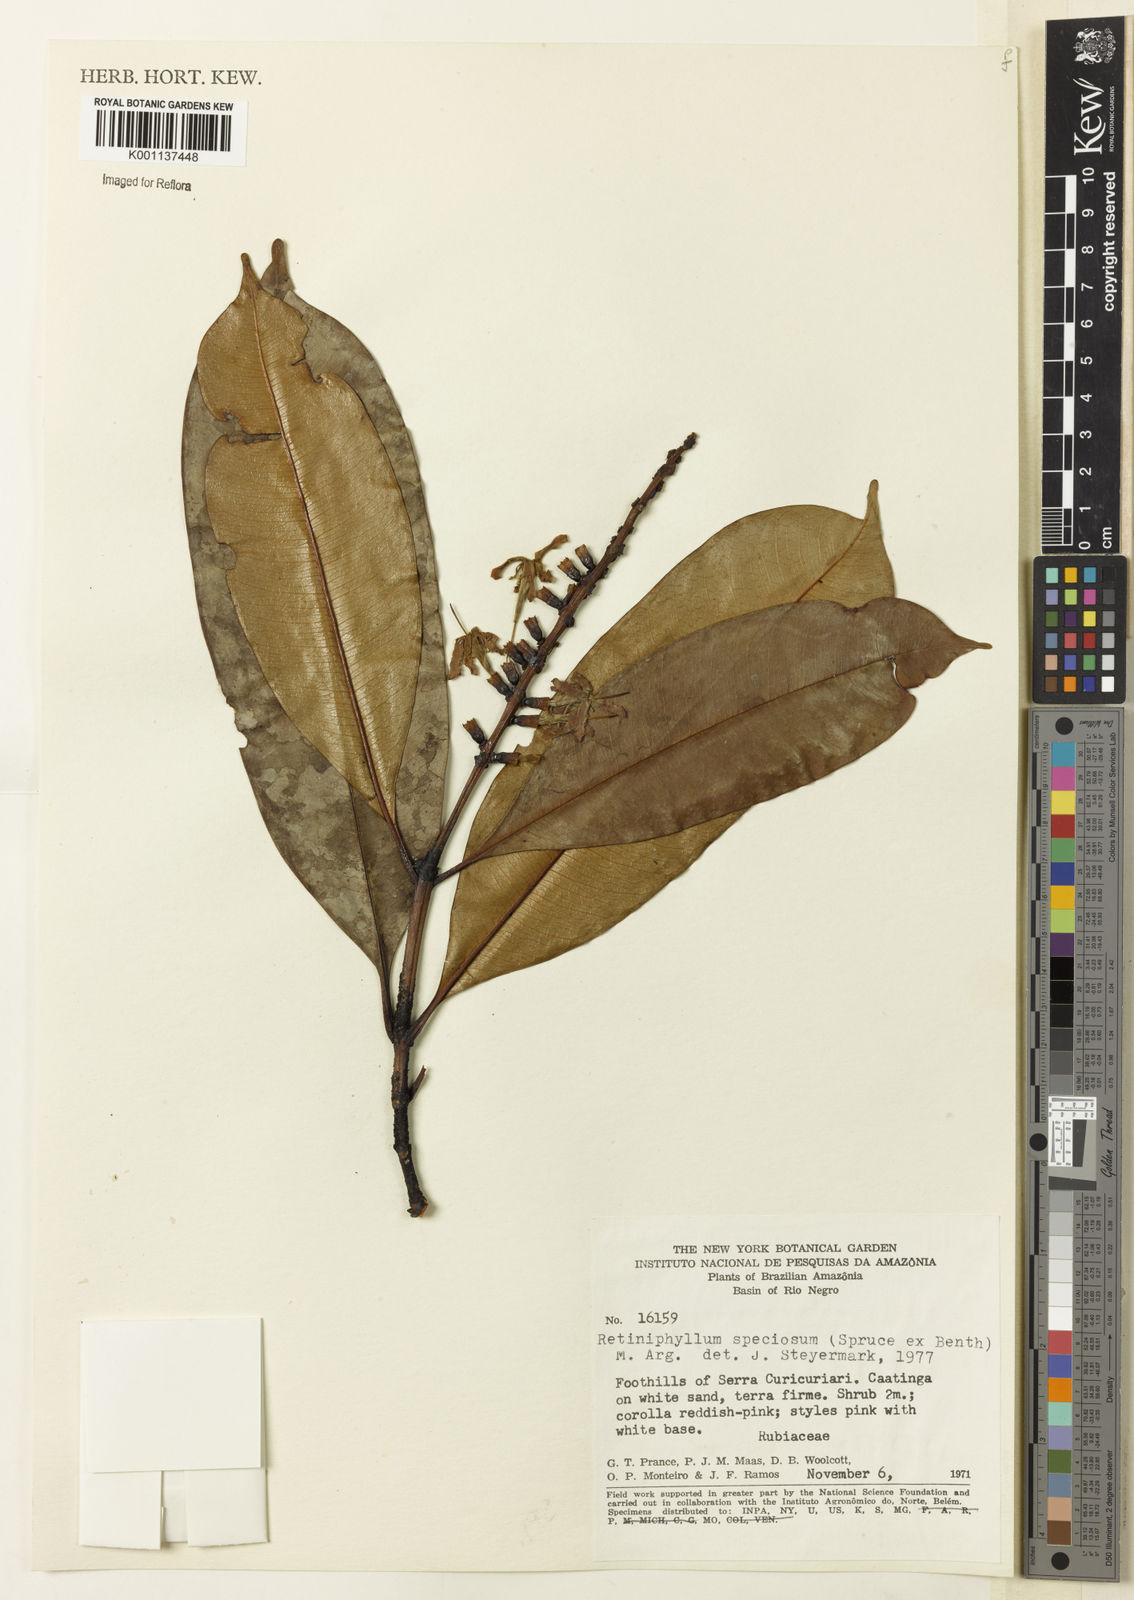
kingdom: Plantae
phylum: Tracheophyta
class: Magnoliopsida
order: Gentianales
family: Rubiaceae
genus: Retiniphyllum
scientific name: Retiniphyllum
